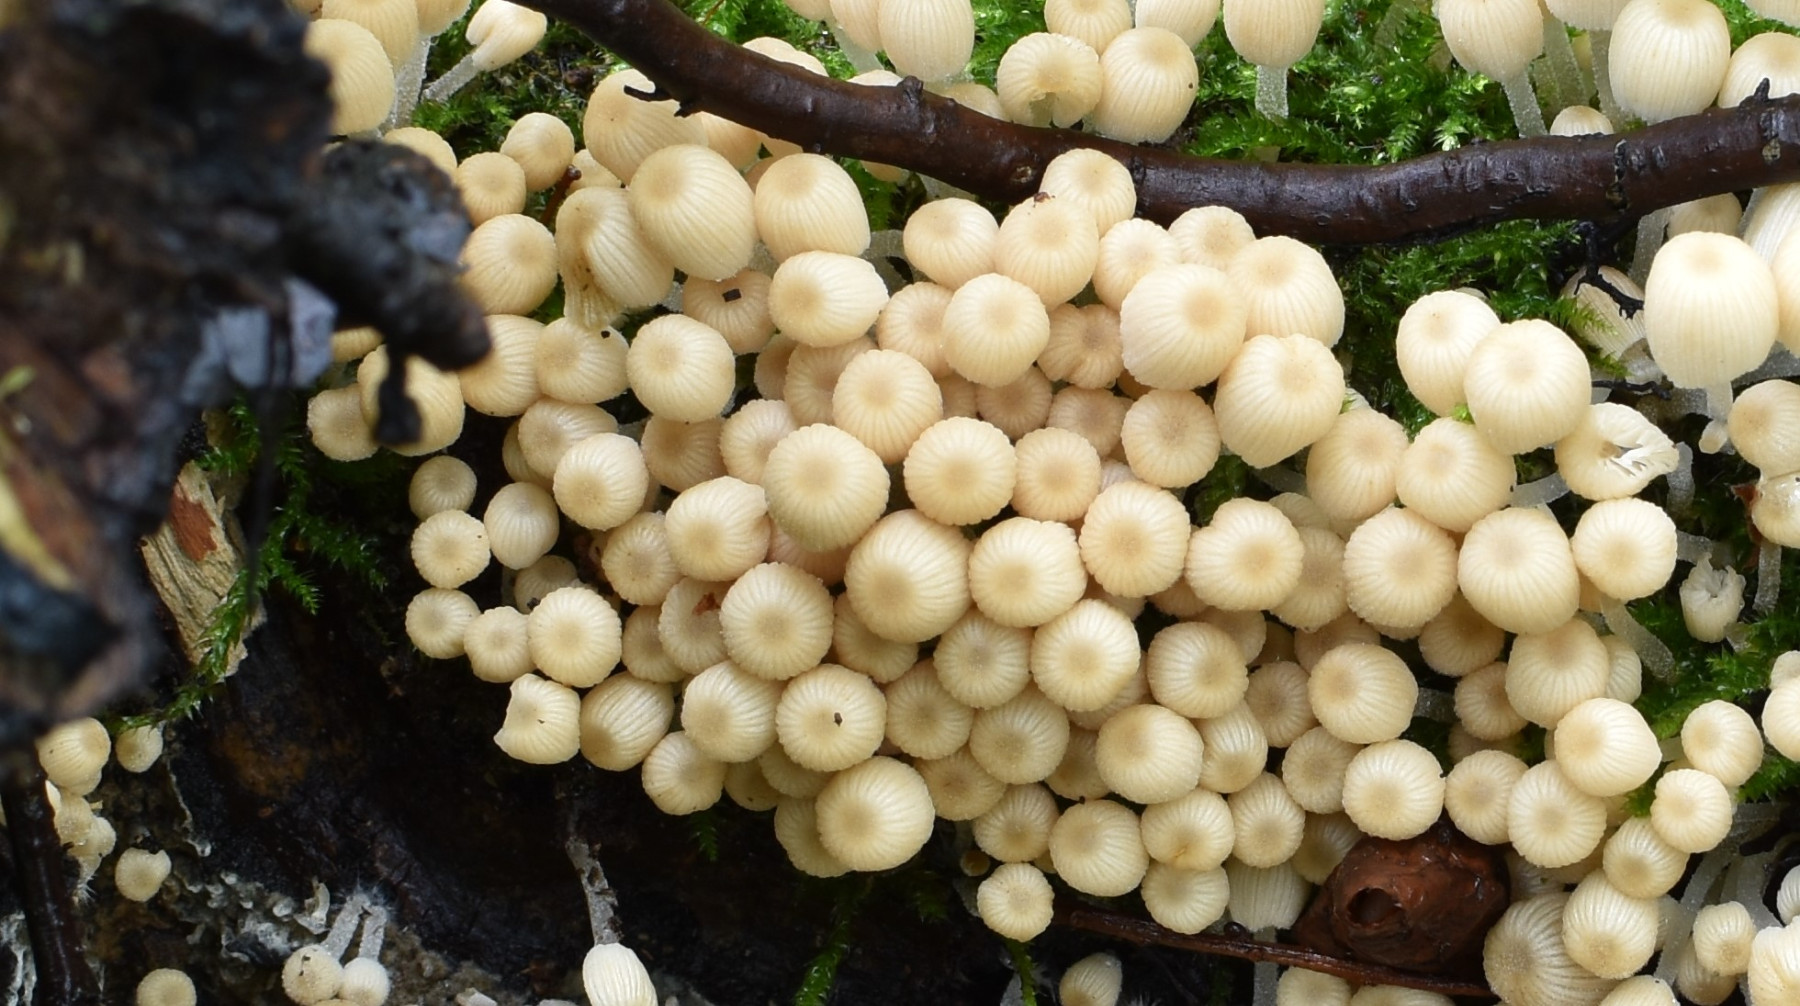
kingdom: Fungi
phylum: Basidiomycota
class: Agaricomycetes
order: Agaricales
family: Psathyrellaceae
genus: Coprinellus
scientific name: Coprinellus micaceus
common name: glimmer-blækhat
